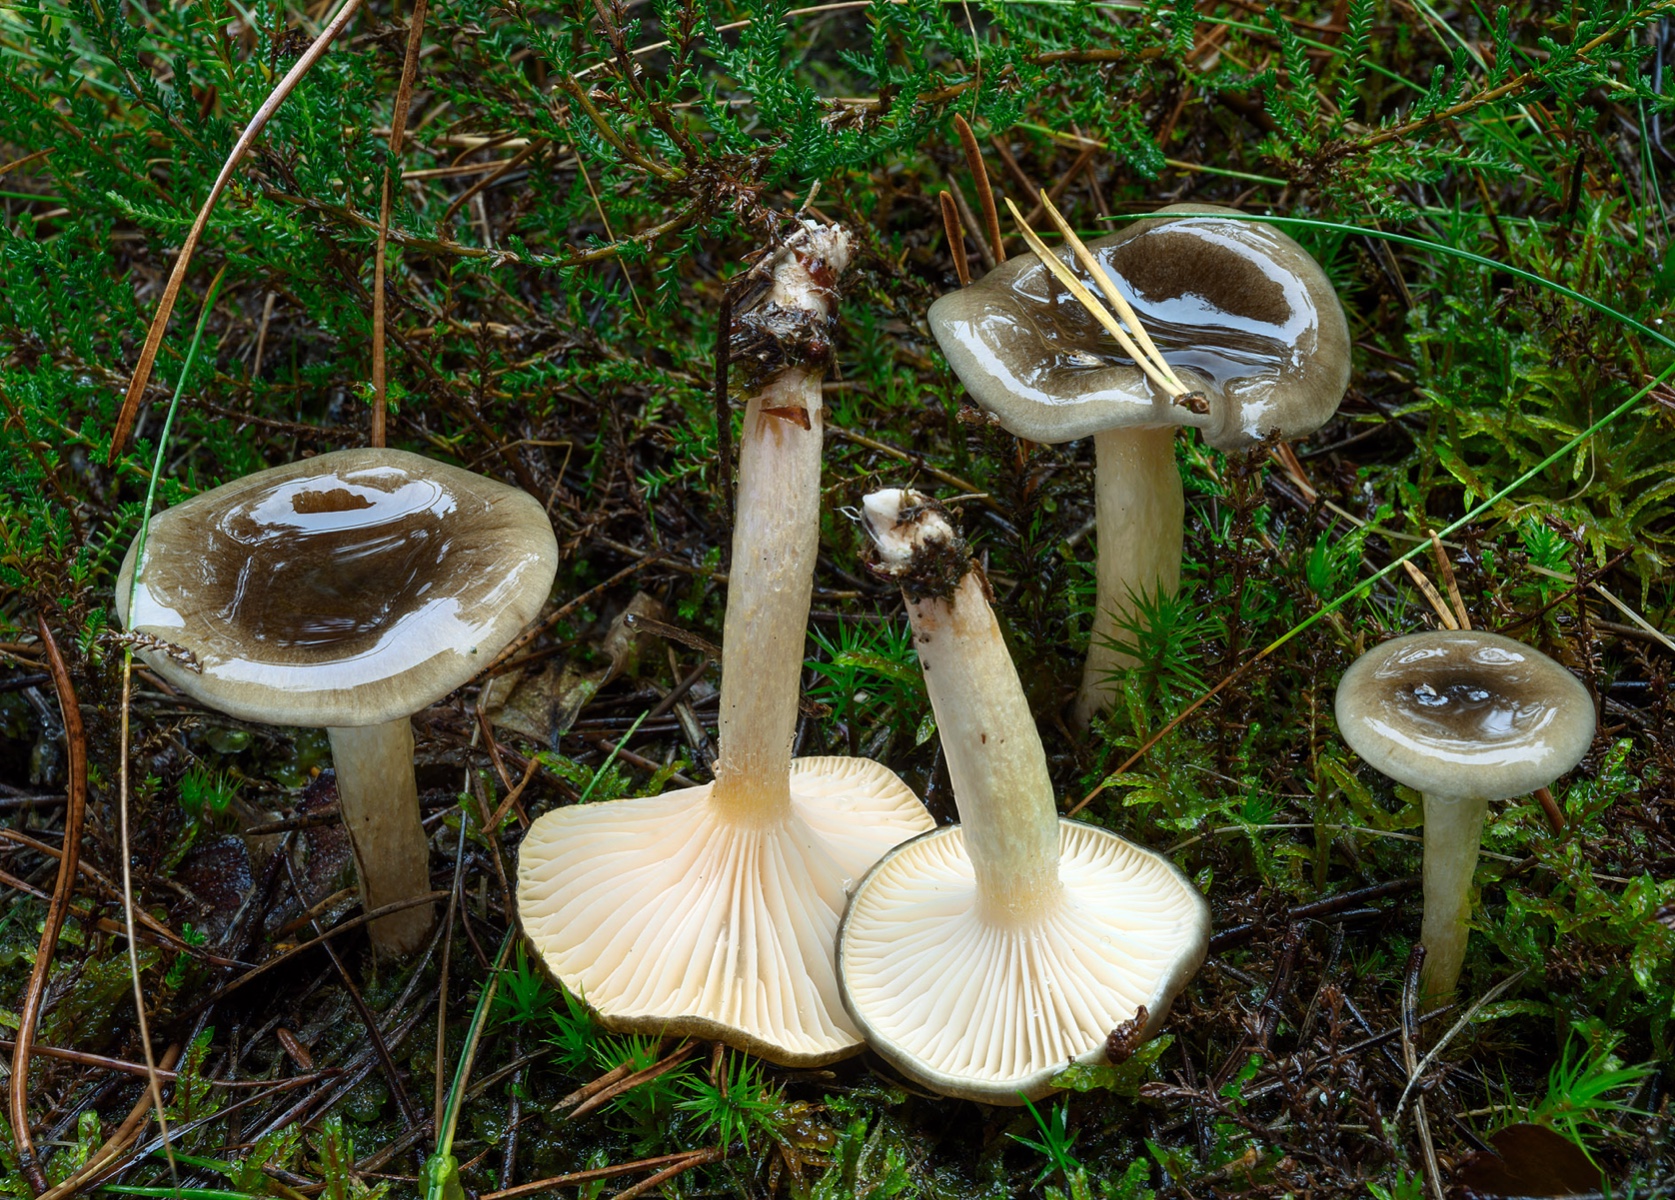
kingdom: Fungi
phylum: Basidiomycota
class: Agaricomycetes
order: Agaricales
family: Hygrophoraceae
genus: Hygrophorus
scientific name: Hygrophorus hypothejus
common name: frost-sneglehat
